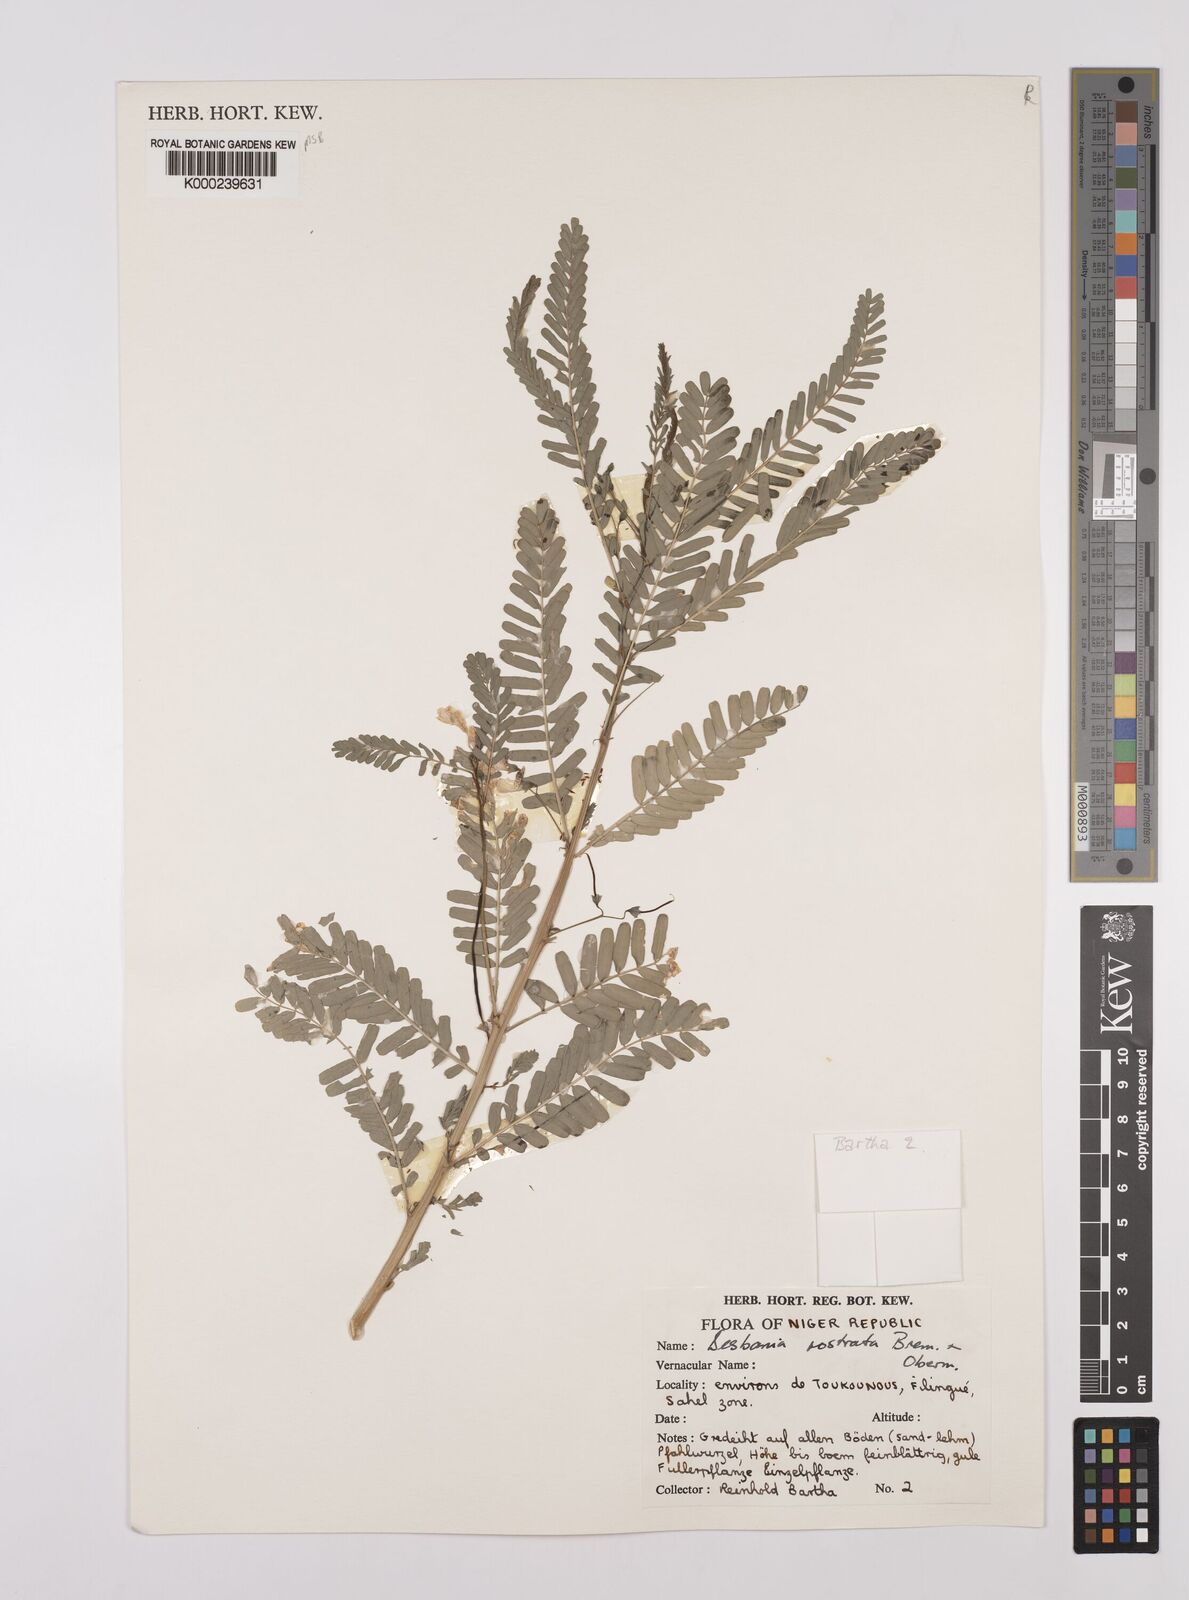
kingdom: Plantae
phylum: Tracheophyta
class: Magnoliopsida
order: Fabales
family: Fabaceae
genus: Sesbania
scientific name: Sesbania rostrata
